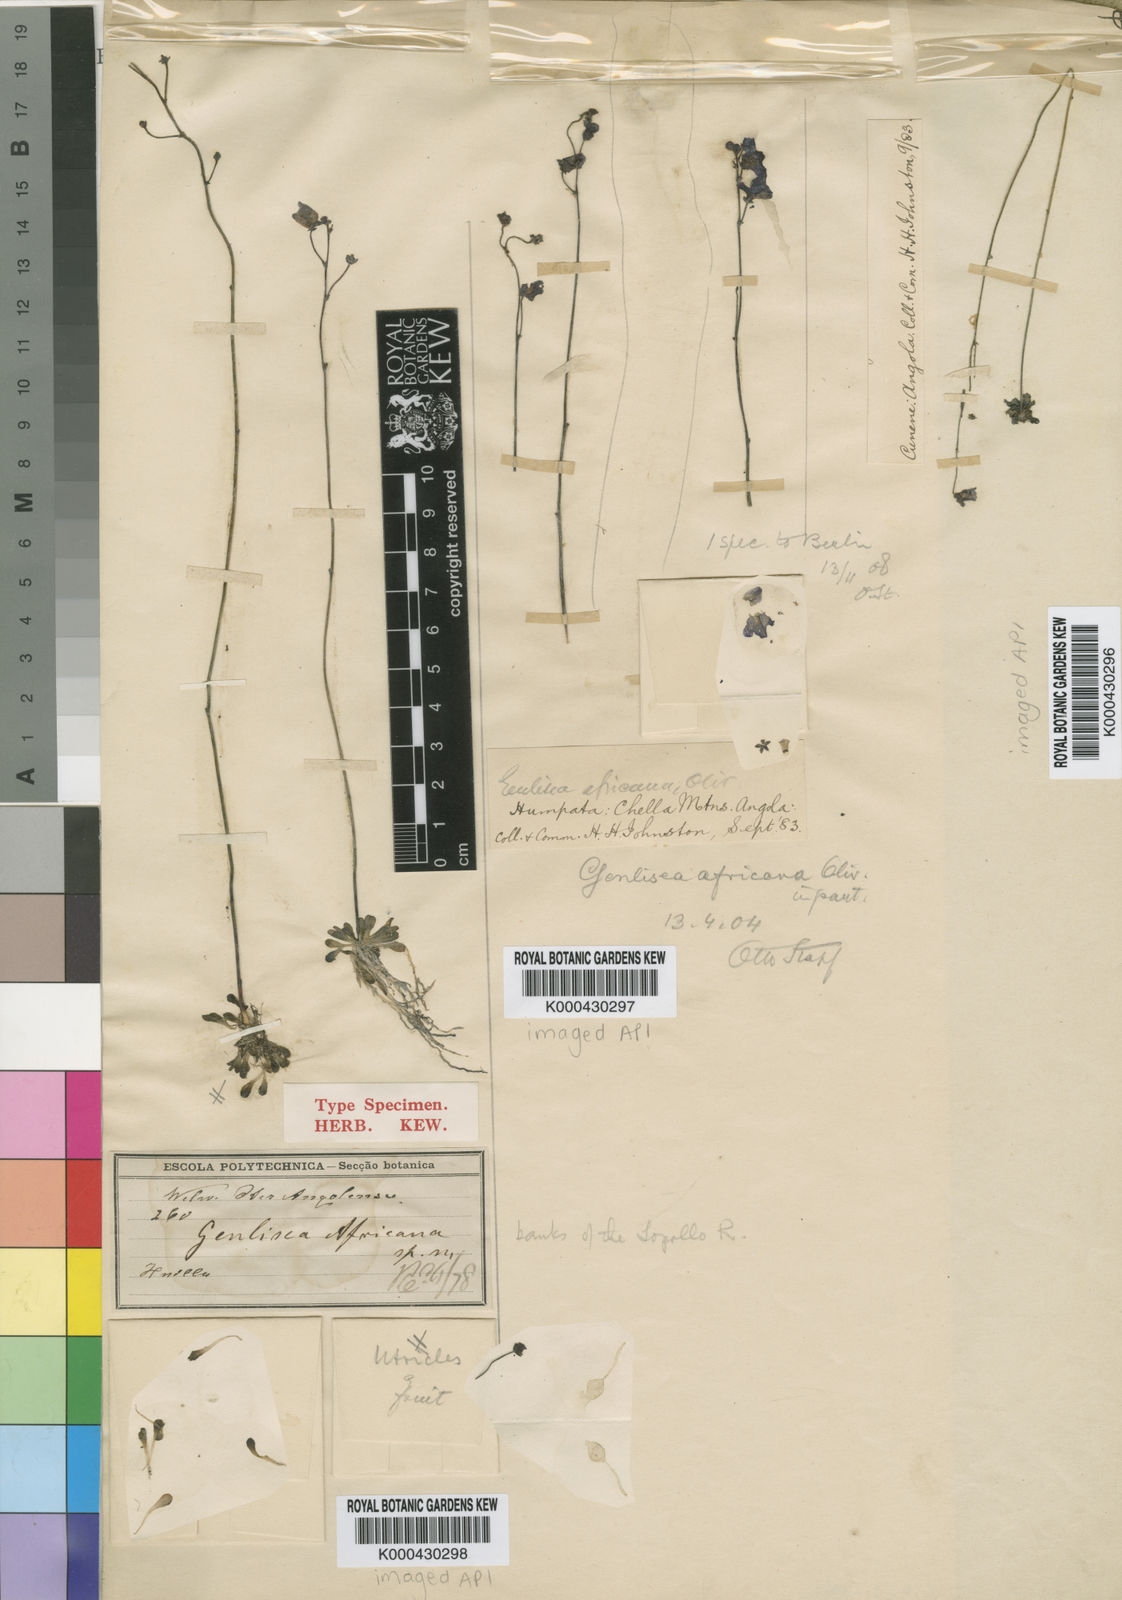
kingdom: Plantae
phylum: Tracheophyta
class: Magnoliopsida
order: Lamiales
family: Lentibulariaceae
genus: Genlisea
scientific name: Genlisea africana
